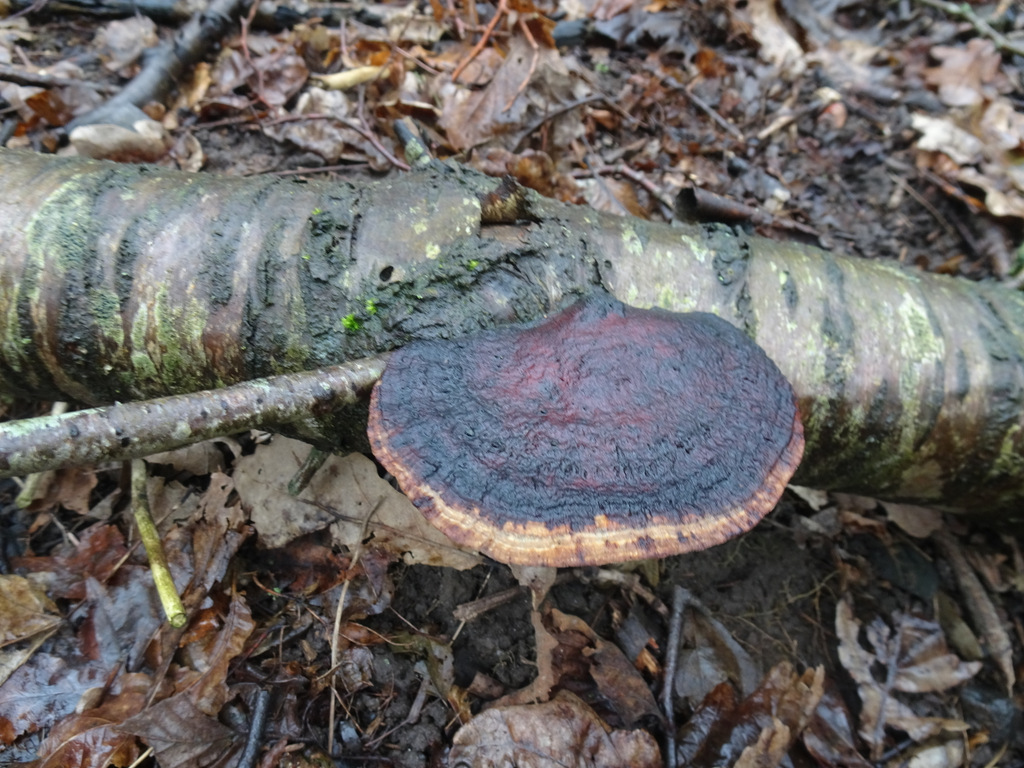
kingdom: Fungi
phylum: Basidiomycota
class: Agaricomycetes
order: Polyporales
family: Polyporaceae
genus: Daedaleopsis
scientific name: Daedaleopsis confragosa
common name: rødmende læderporesvamp
